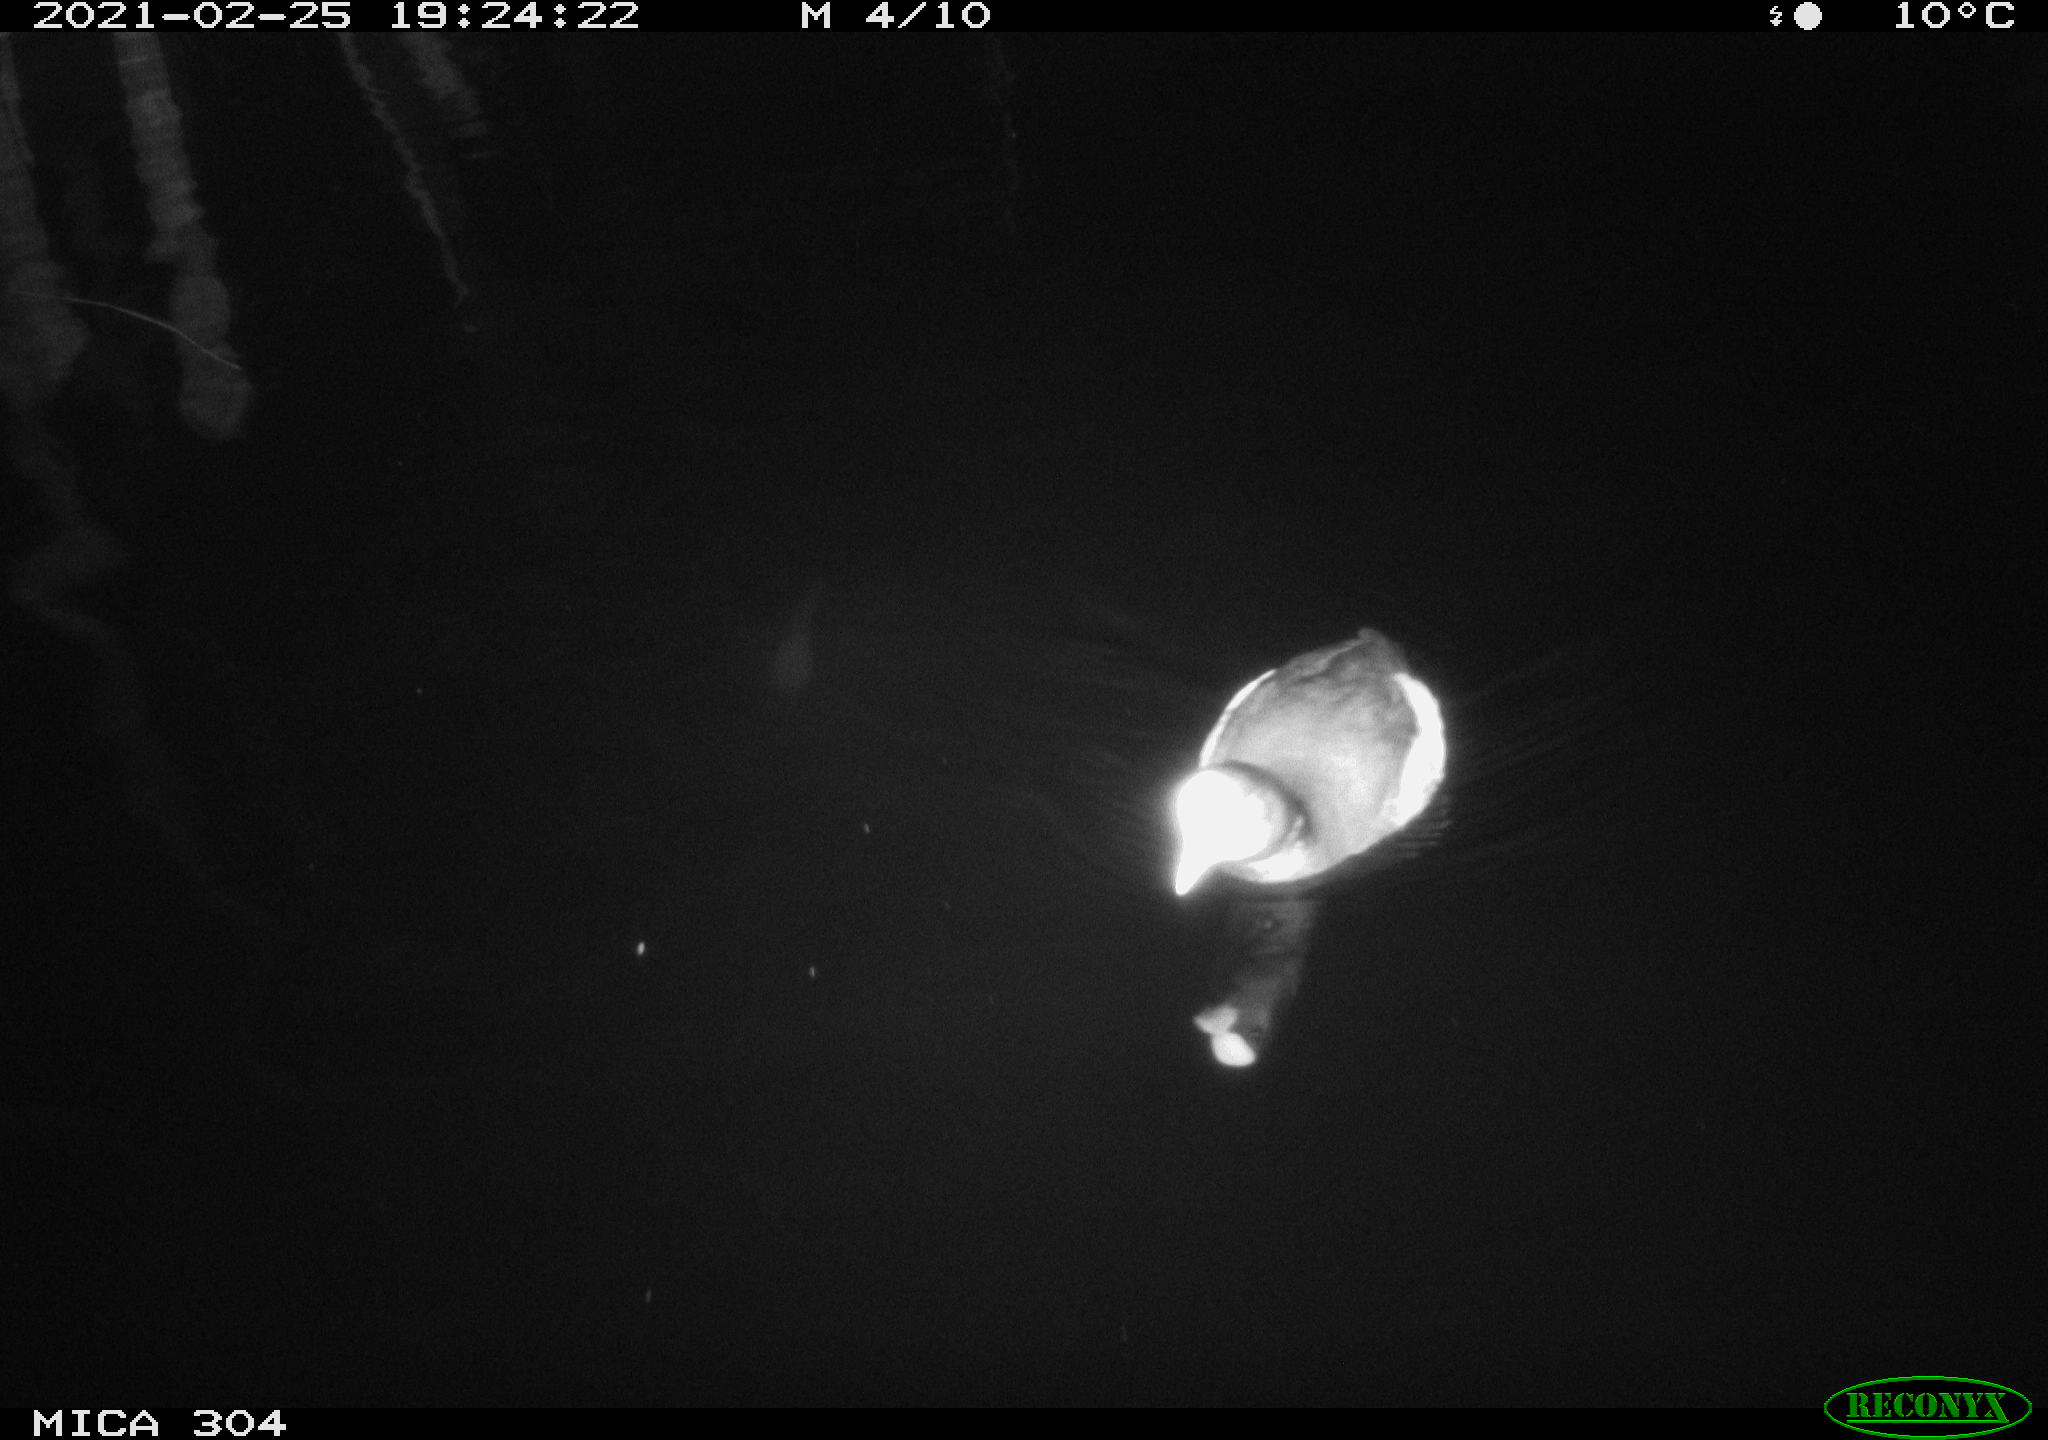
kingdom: Animalia
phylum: Chordata
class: Aves
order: Gruiformes
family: Rallidae
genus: Gallinula
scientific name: Gallinula chloropus
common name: Common moorhen
